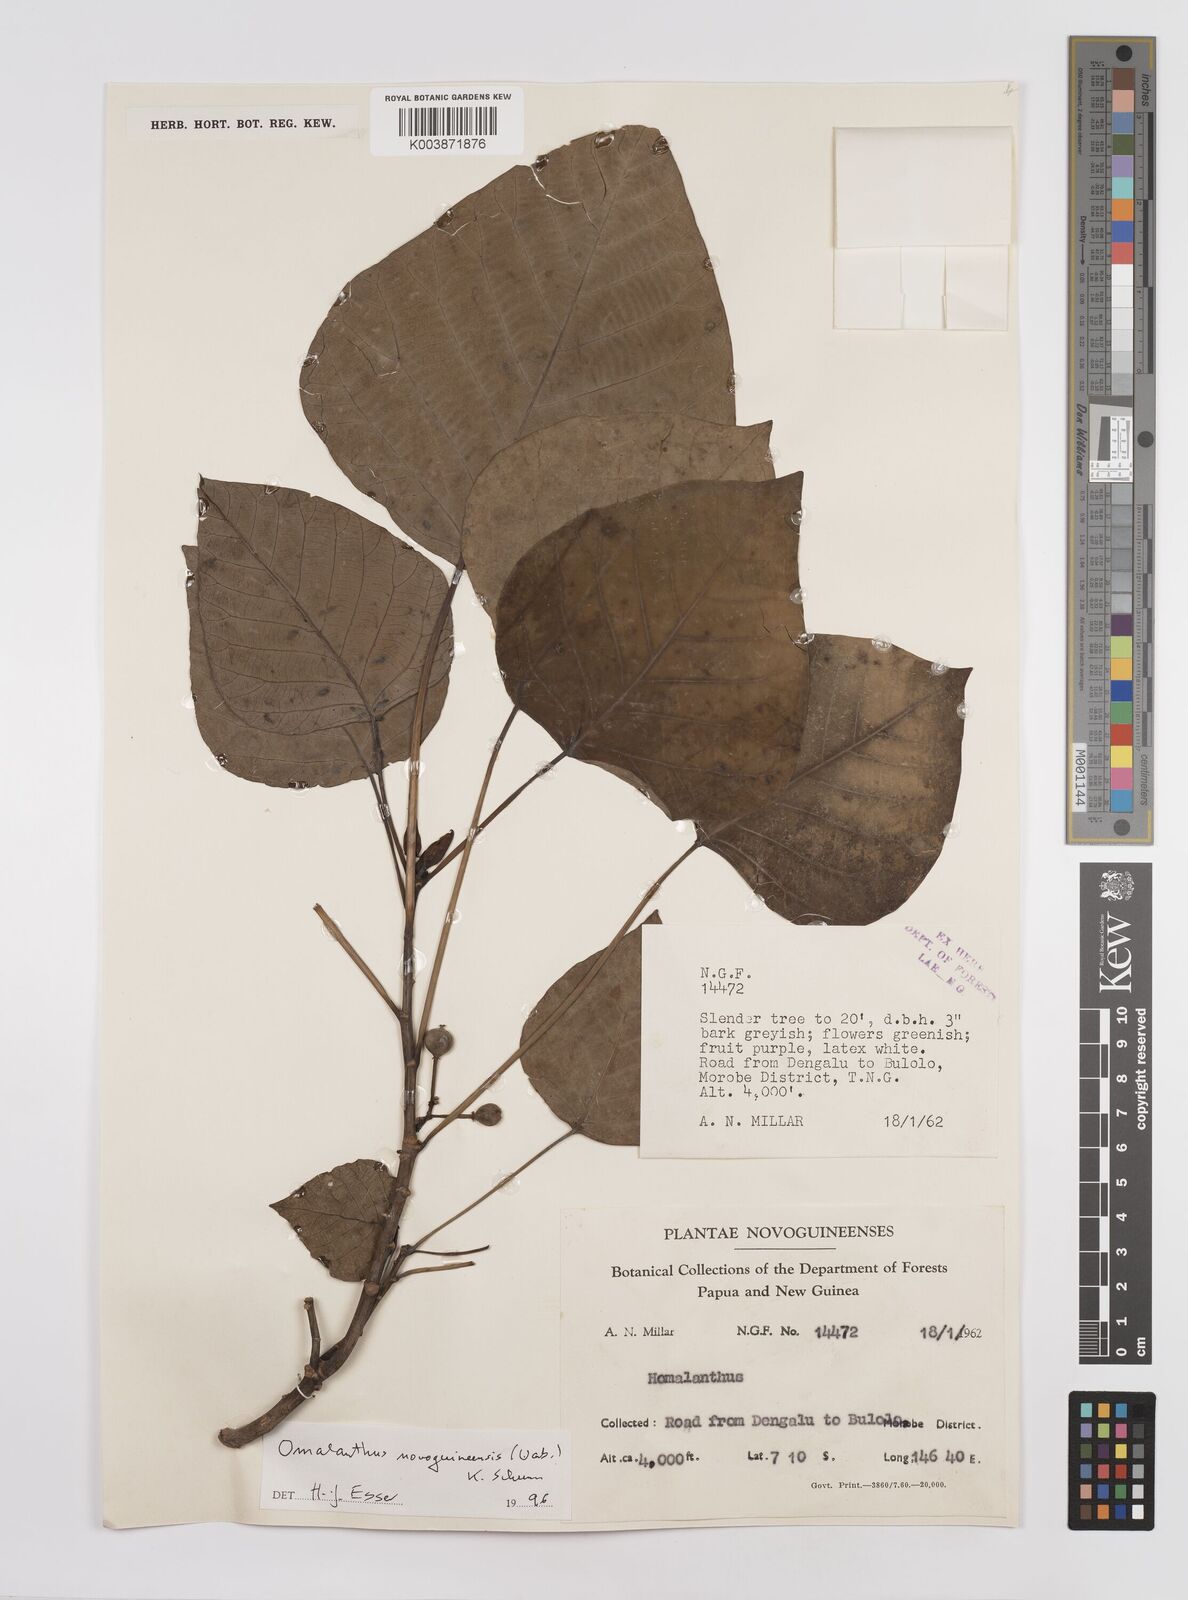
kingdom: Plantae
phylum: Tracheophyta
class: Magnoliopsida
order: Malpighiales
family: Euphorbiaceae
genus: Homalanthus
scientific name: Homalanthus novoguineensis
